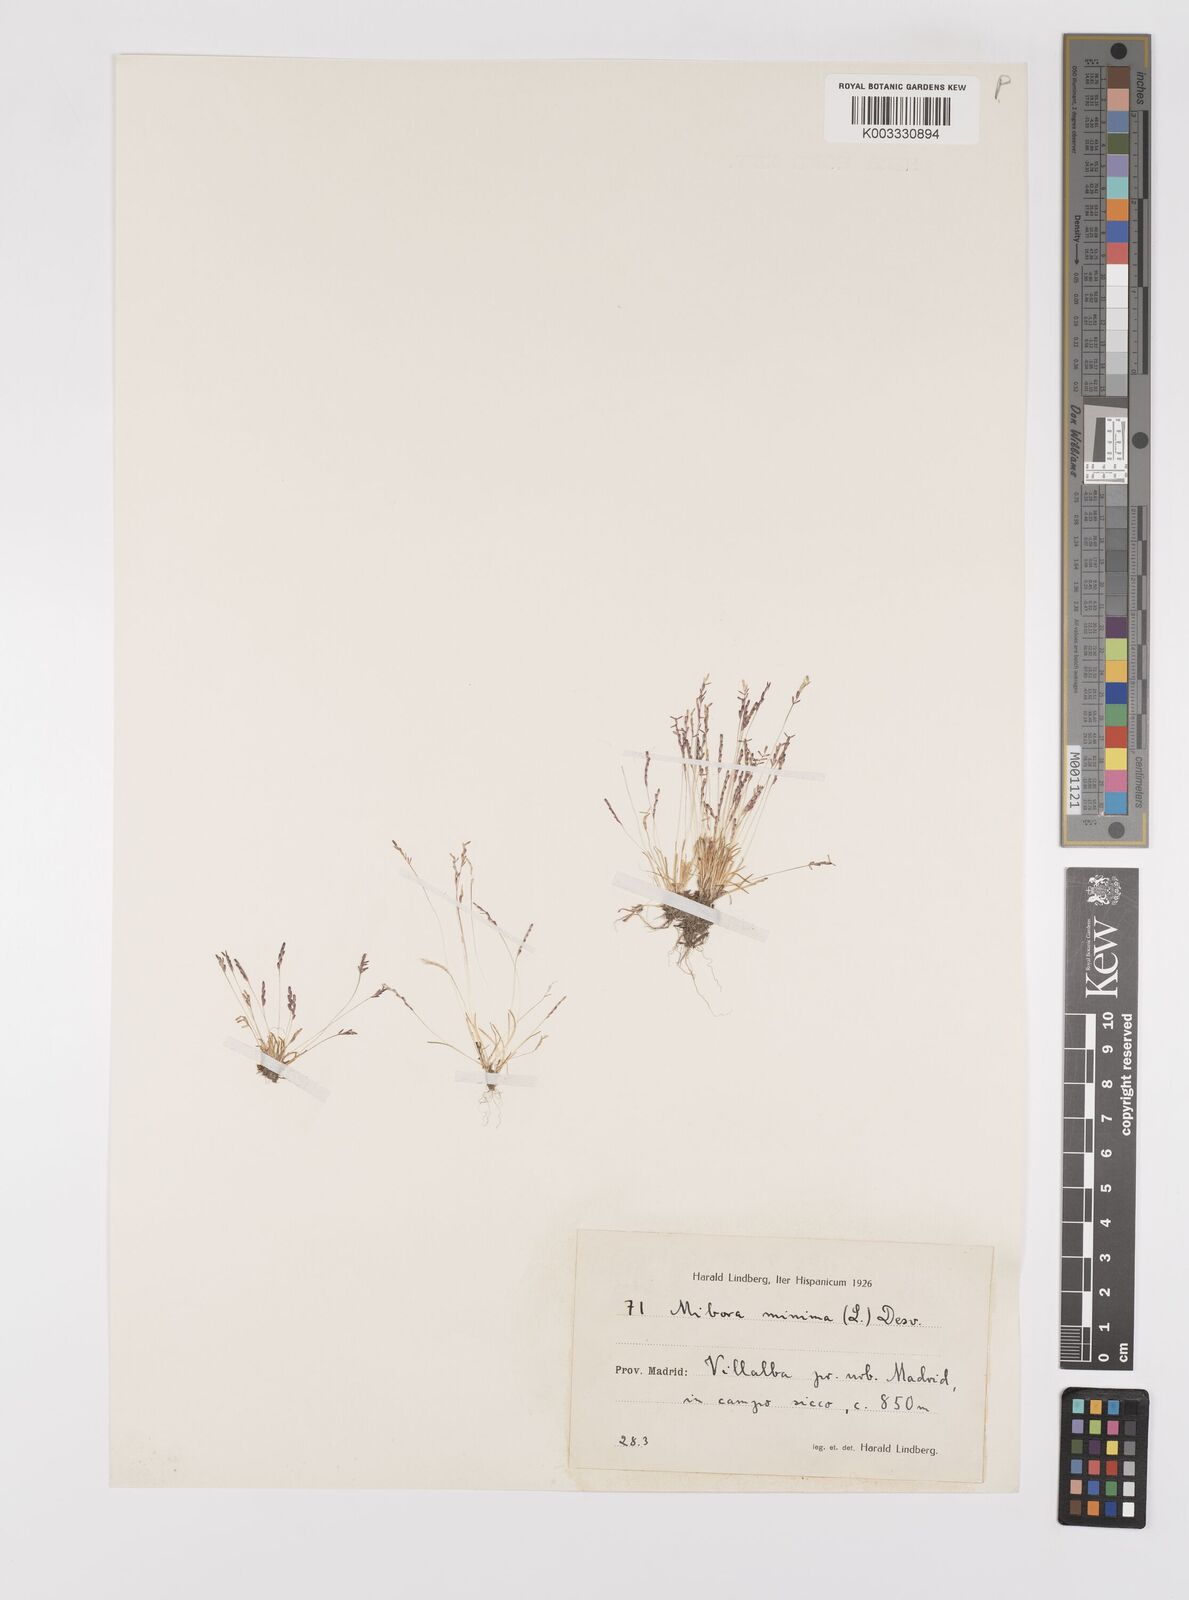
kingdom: Plantae
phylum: Tracheophyta
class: Liliopsida
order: Poales
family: Poaceae
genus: Mibora
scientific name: Mibora minima
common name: Early sand-grass
